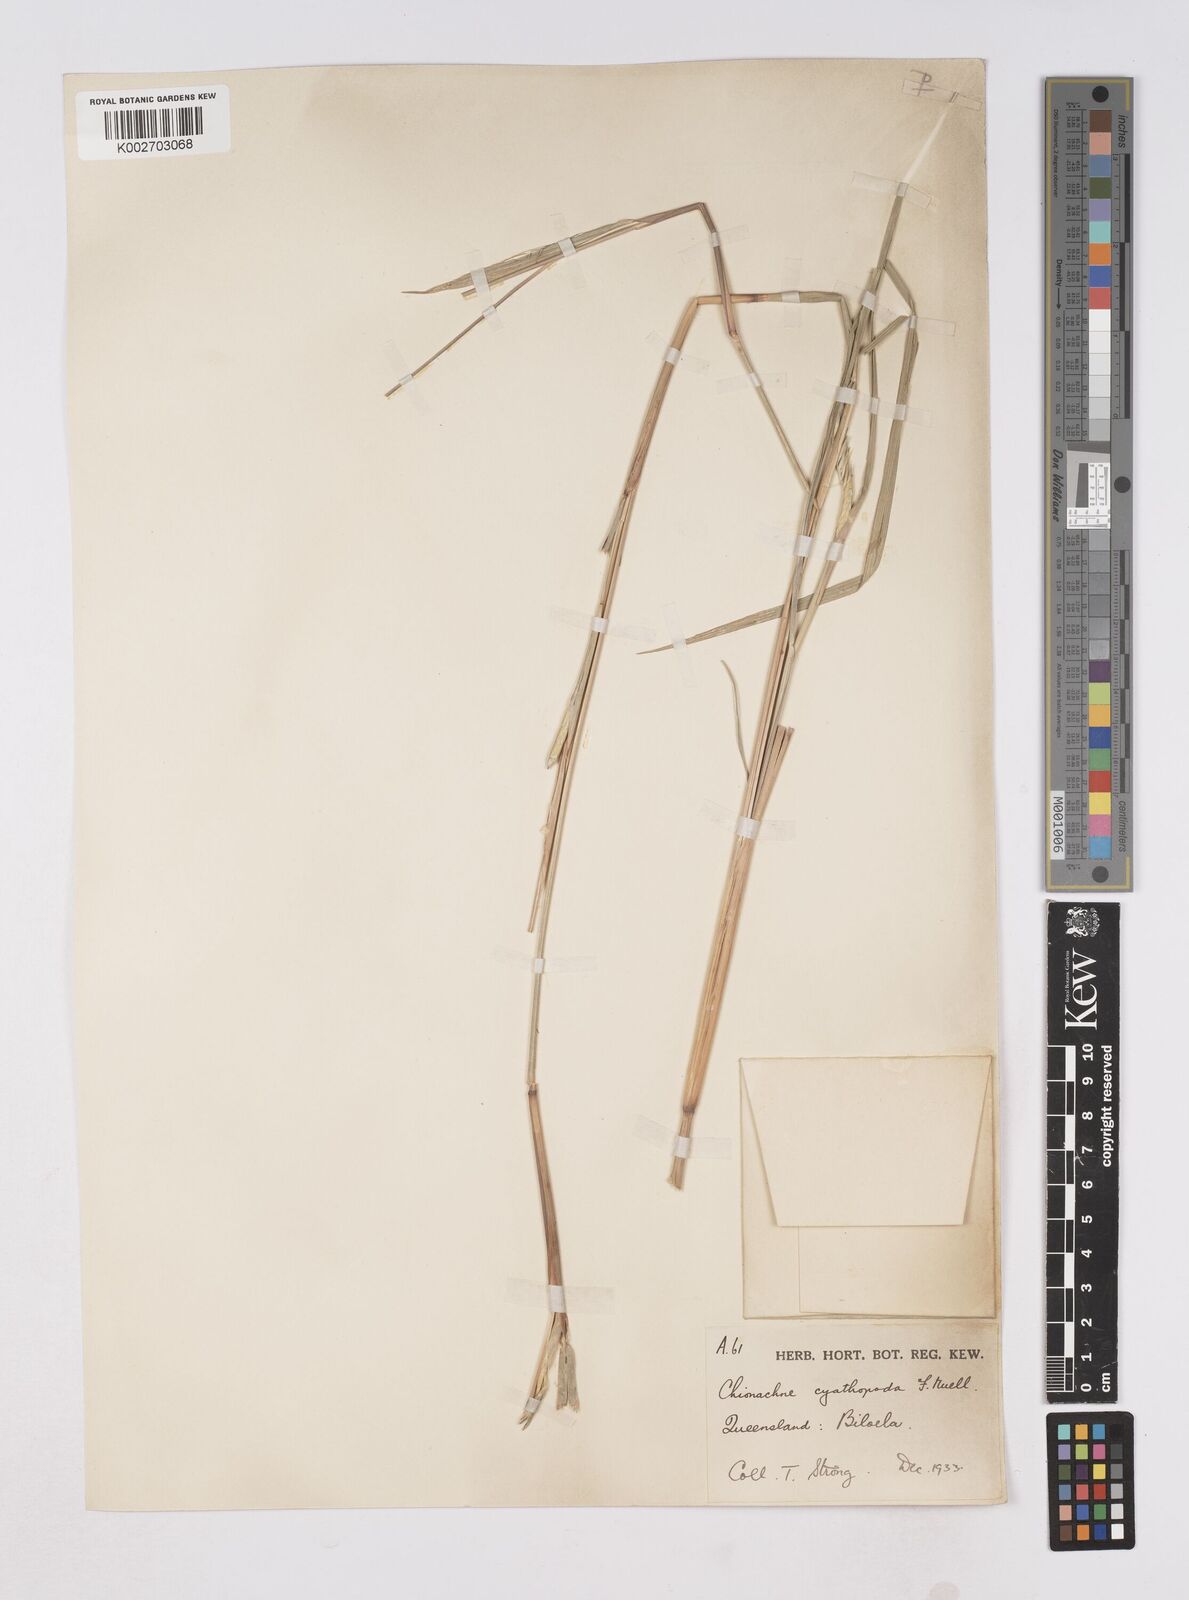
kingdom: Plantae
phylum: Tracheophyta
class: Liliopsida
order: Poales
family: Poaceae
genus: Polytoca
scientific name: Polytoca cyathopoda
